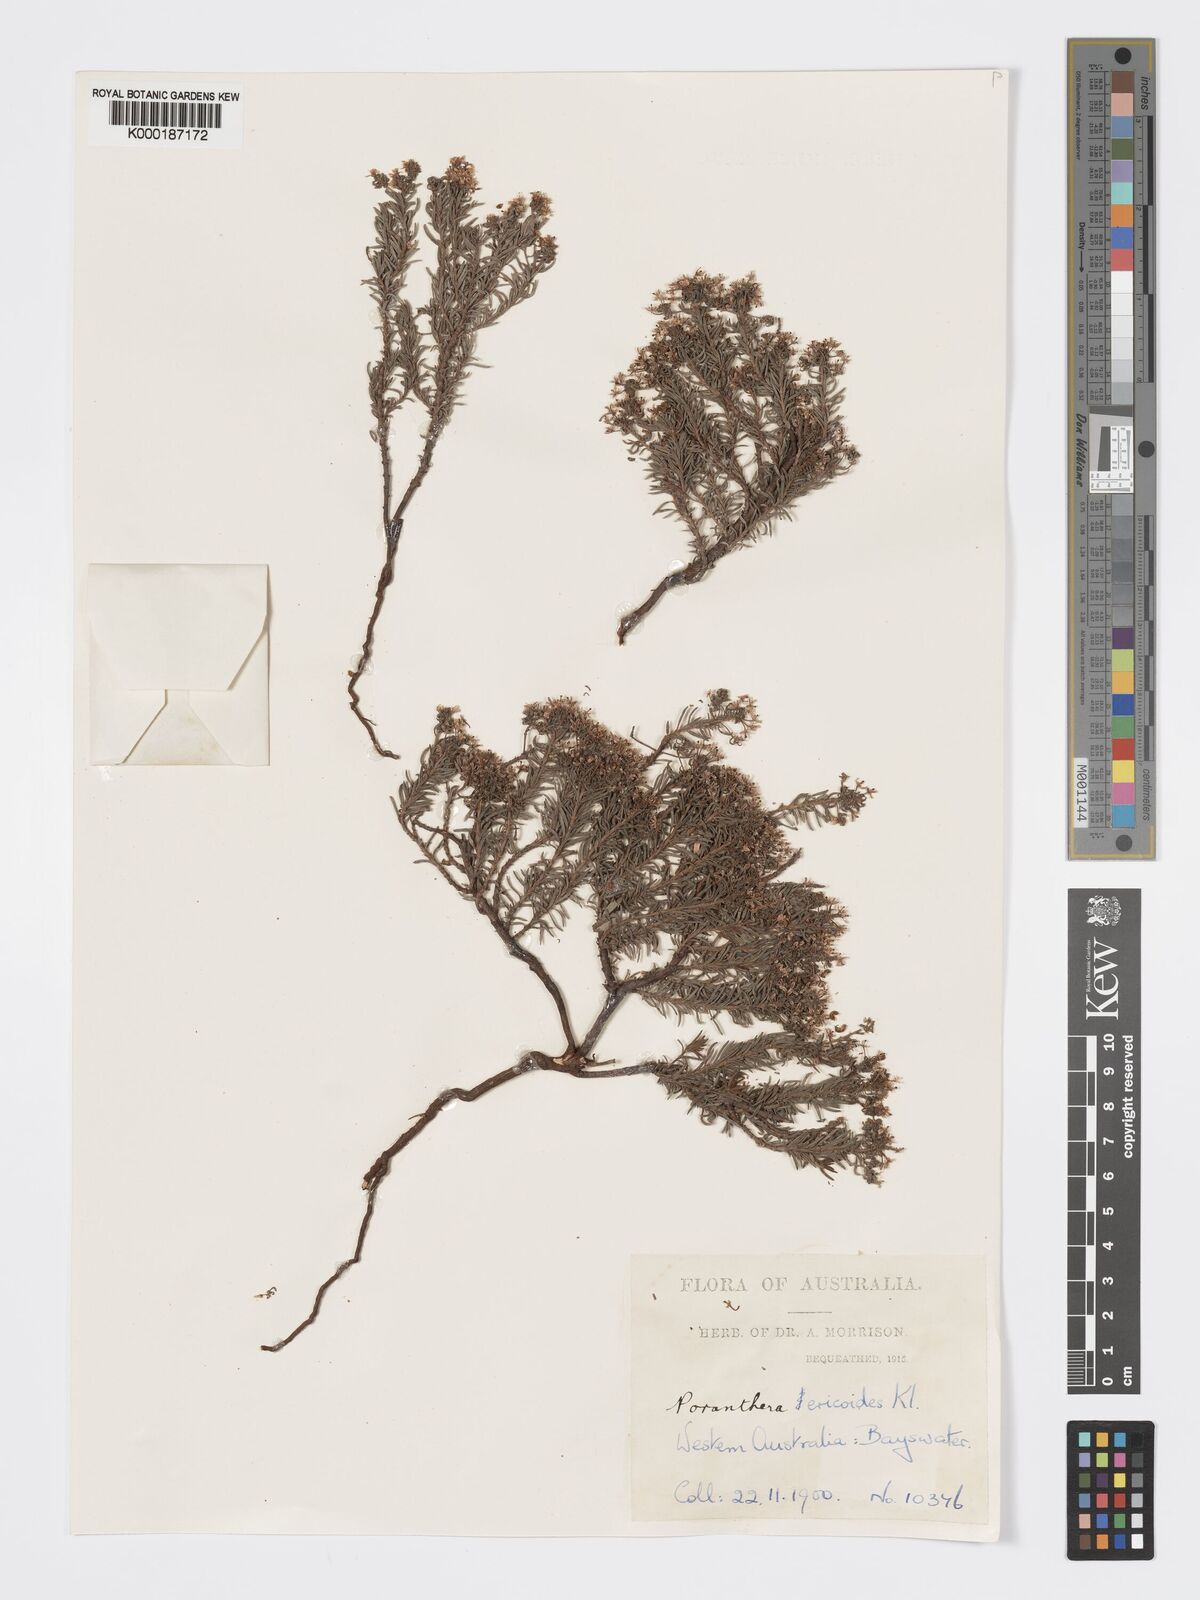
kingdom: Plantae
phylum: Tracheophyta
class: Magnoliopsida
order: Malpighiales
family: Phyllanthaceae
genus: Poranthera
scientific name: Poranthera ericoides
